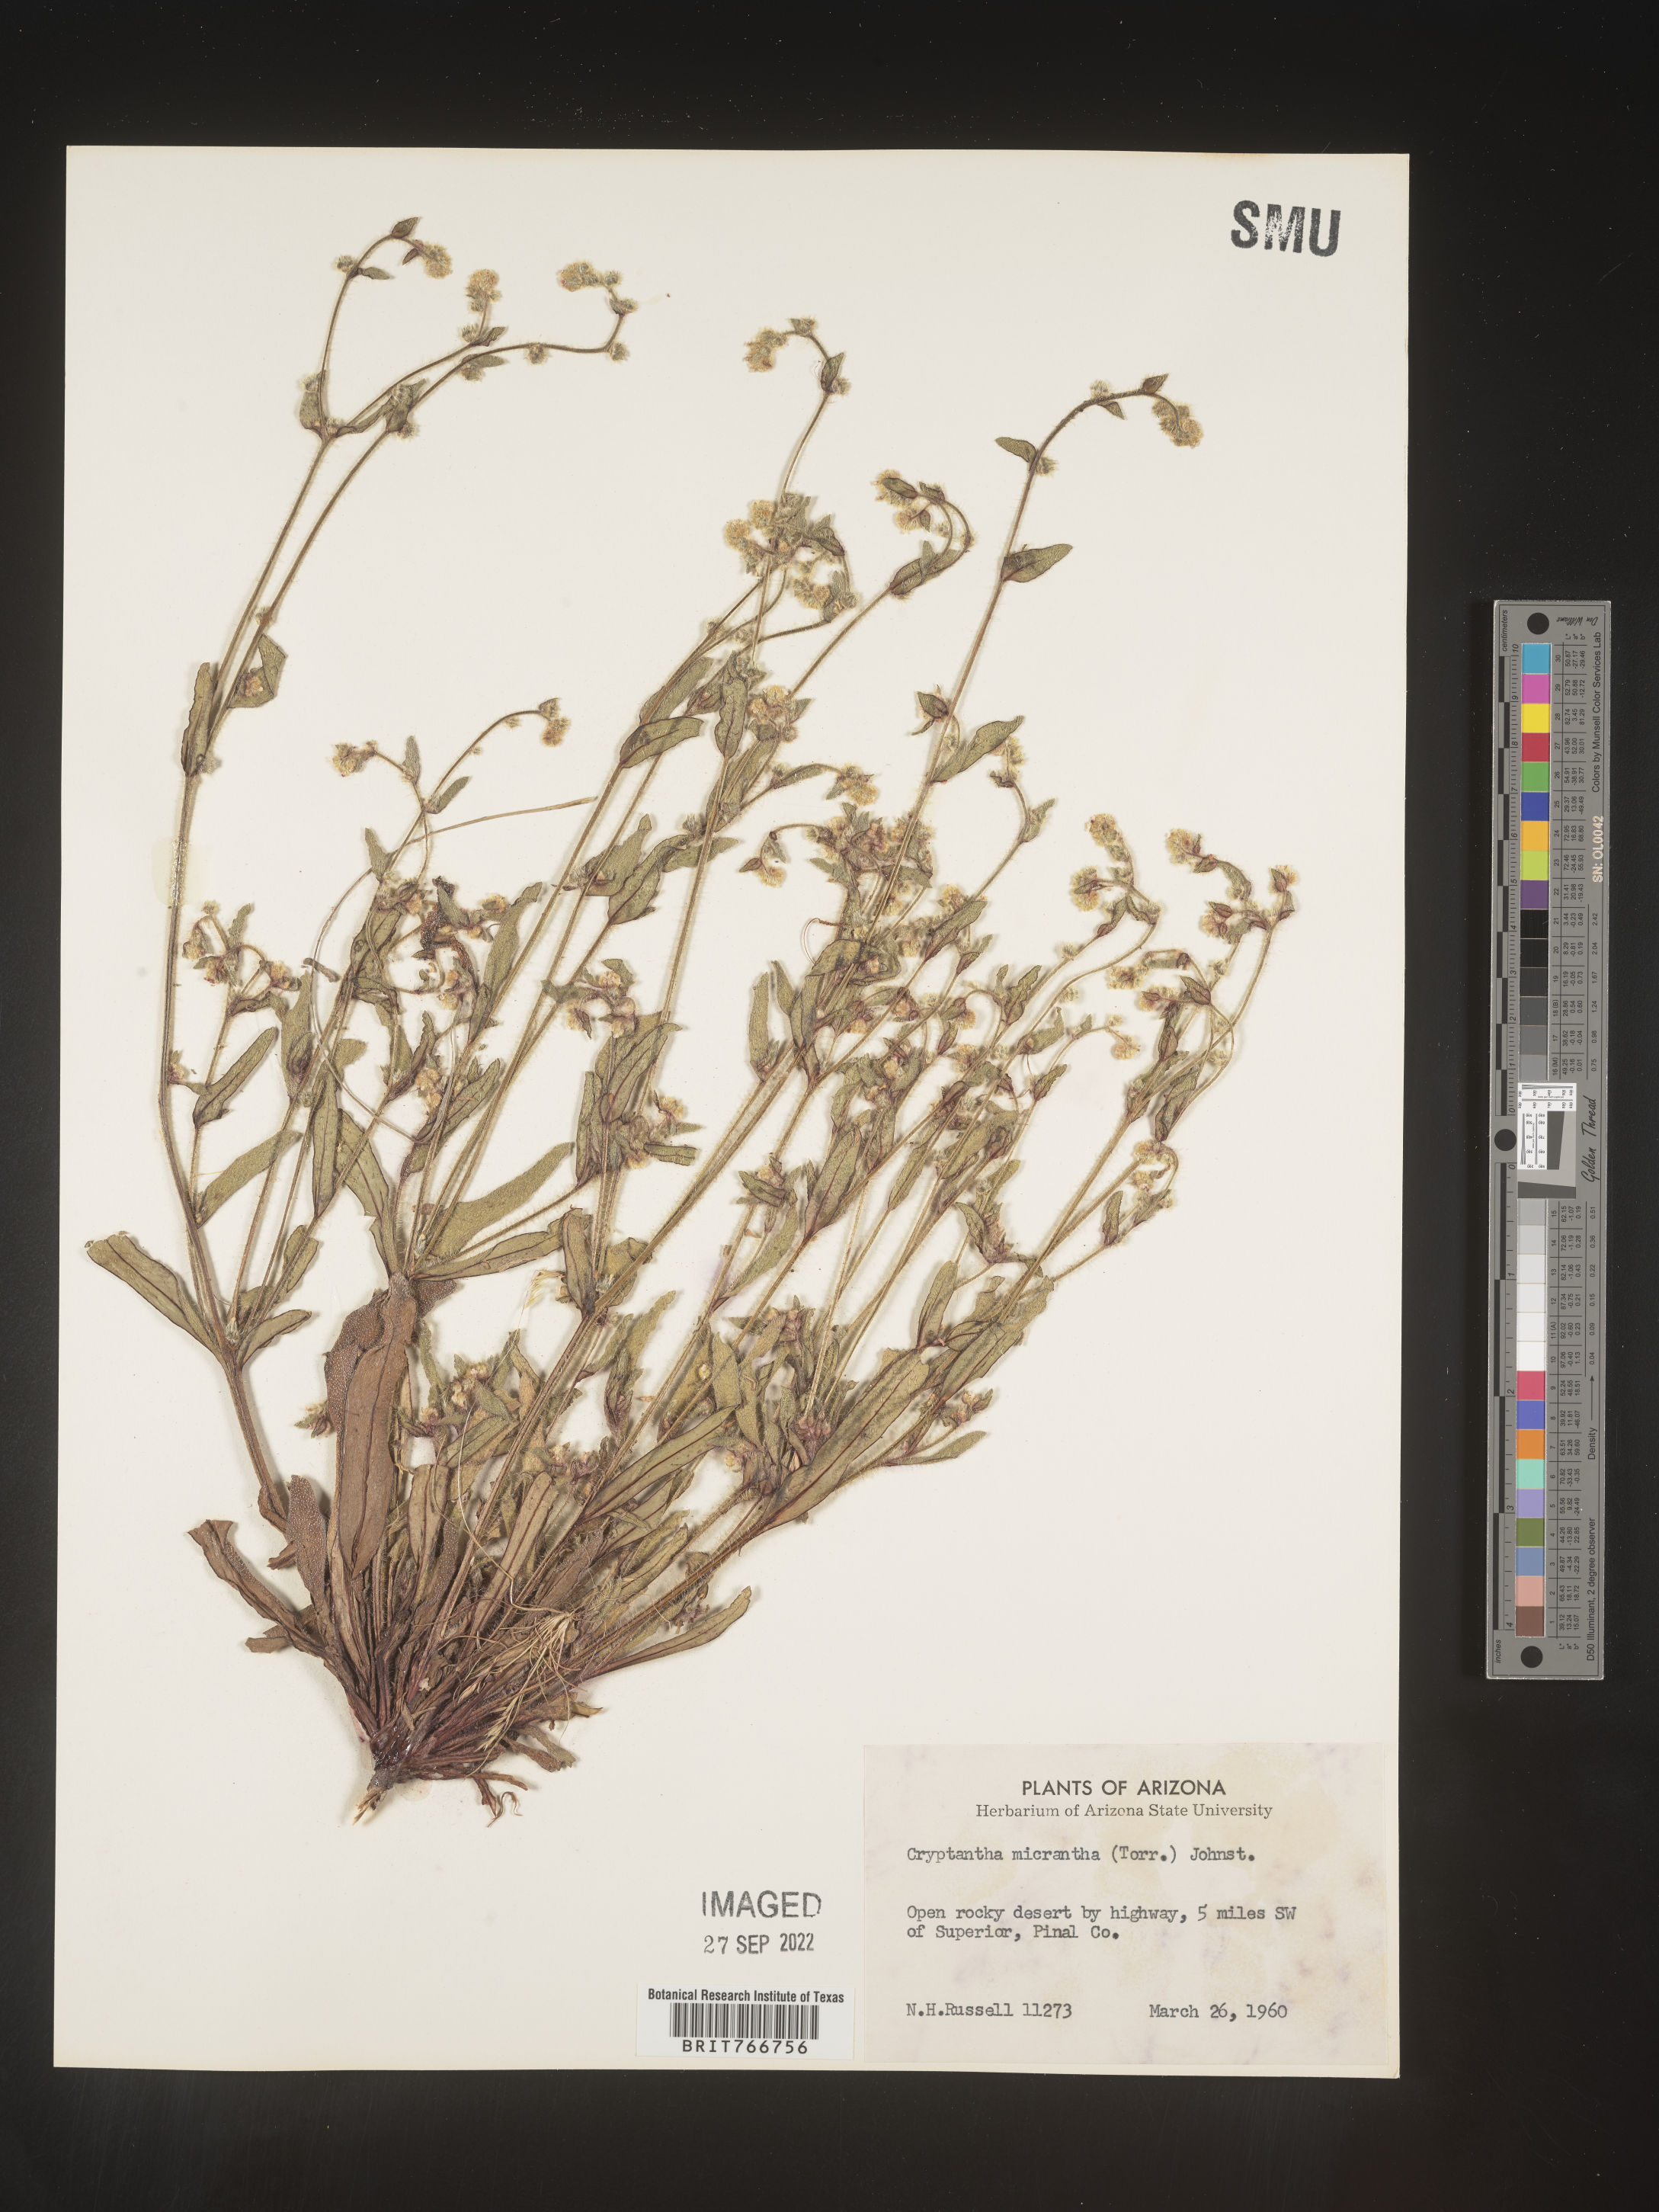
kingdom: Plantae
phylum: Tracheophyta
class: Magnoliopsida
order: Boraginales
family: Boraginaceae
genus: Cryptantha
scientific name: Cryptantha
